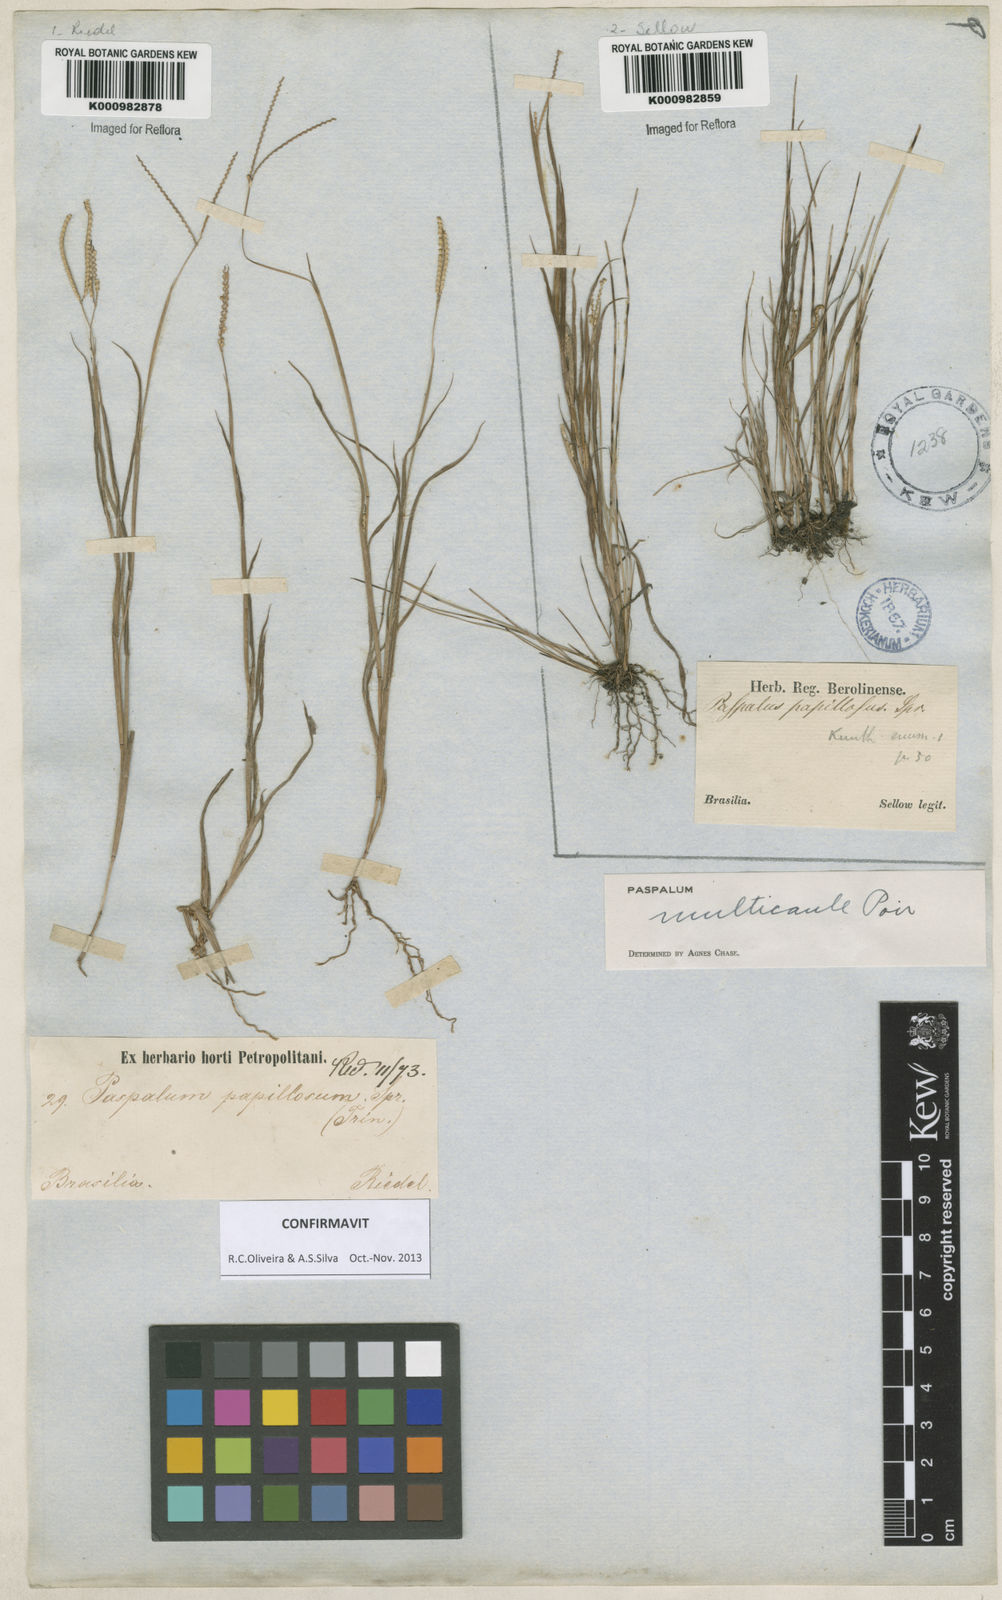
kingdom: Plantae
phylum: Tracheophyta
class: Liliopsida
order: Poales
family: Poaceae
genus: Paspalum
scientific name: Paspalum multicaule
